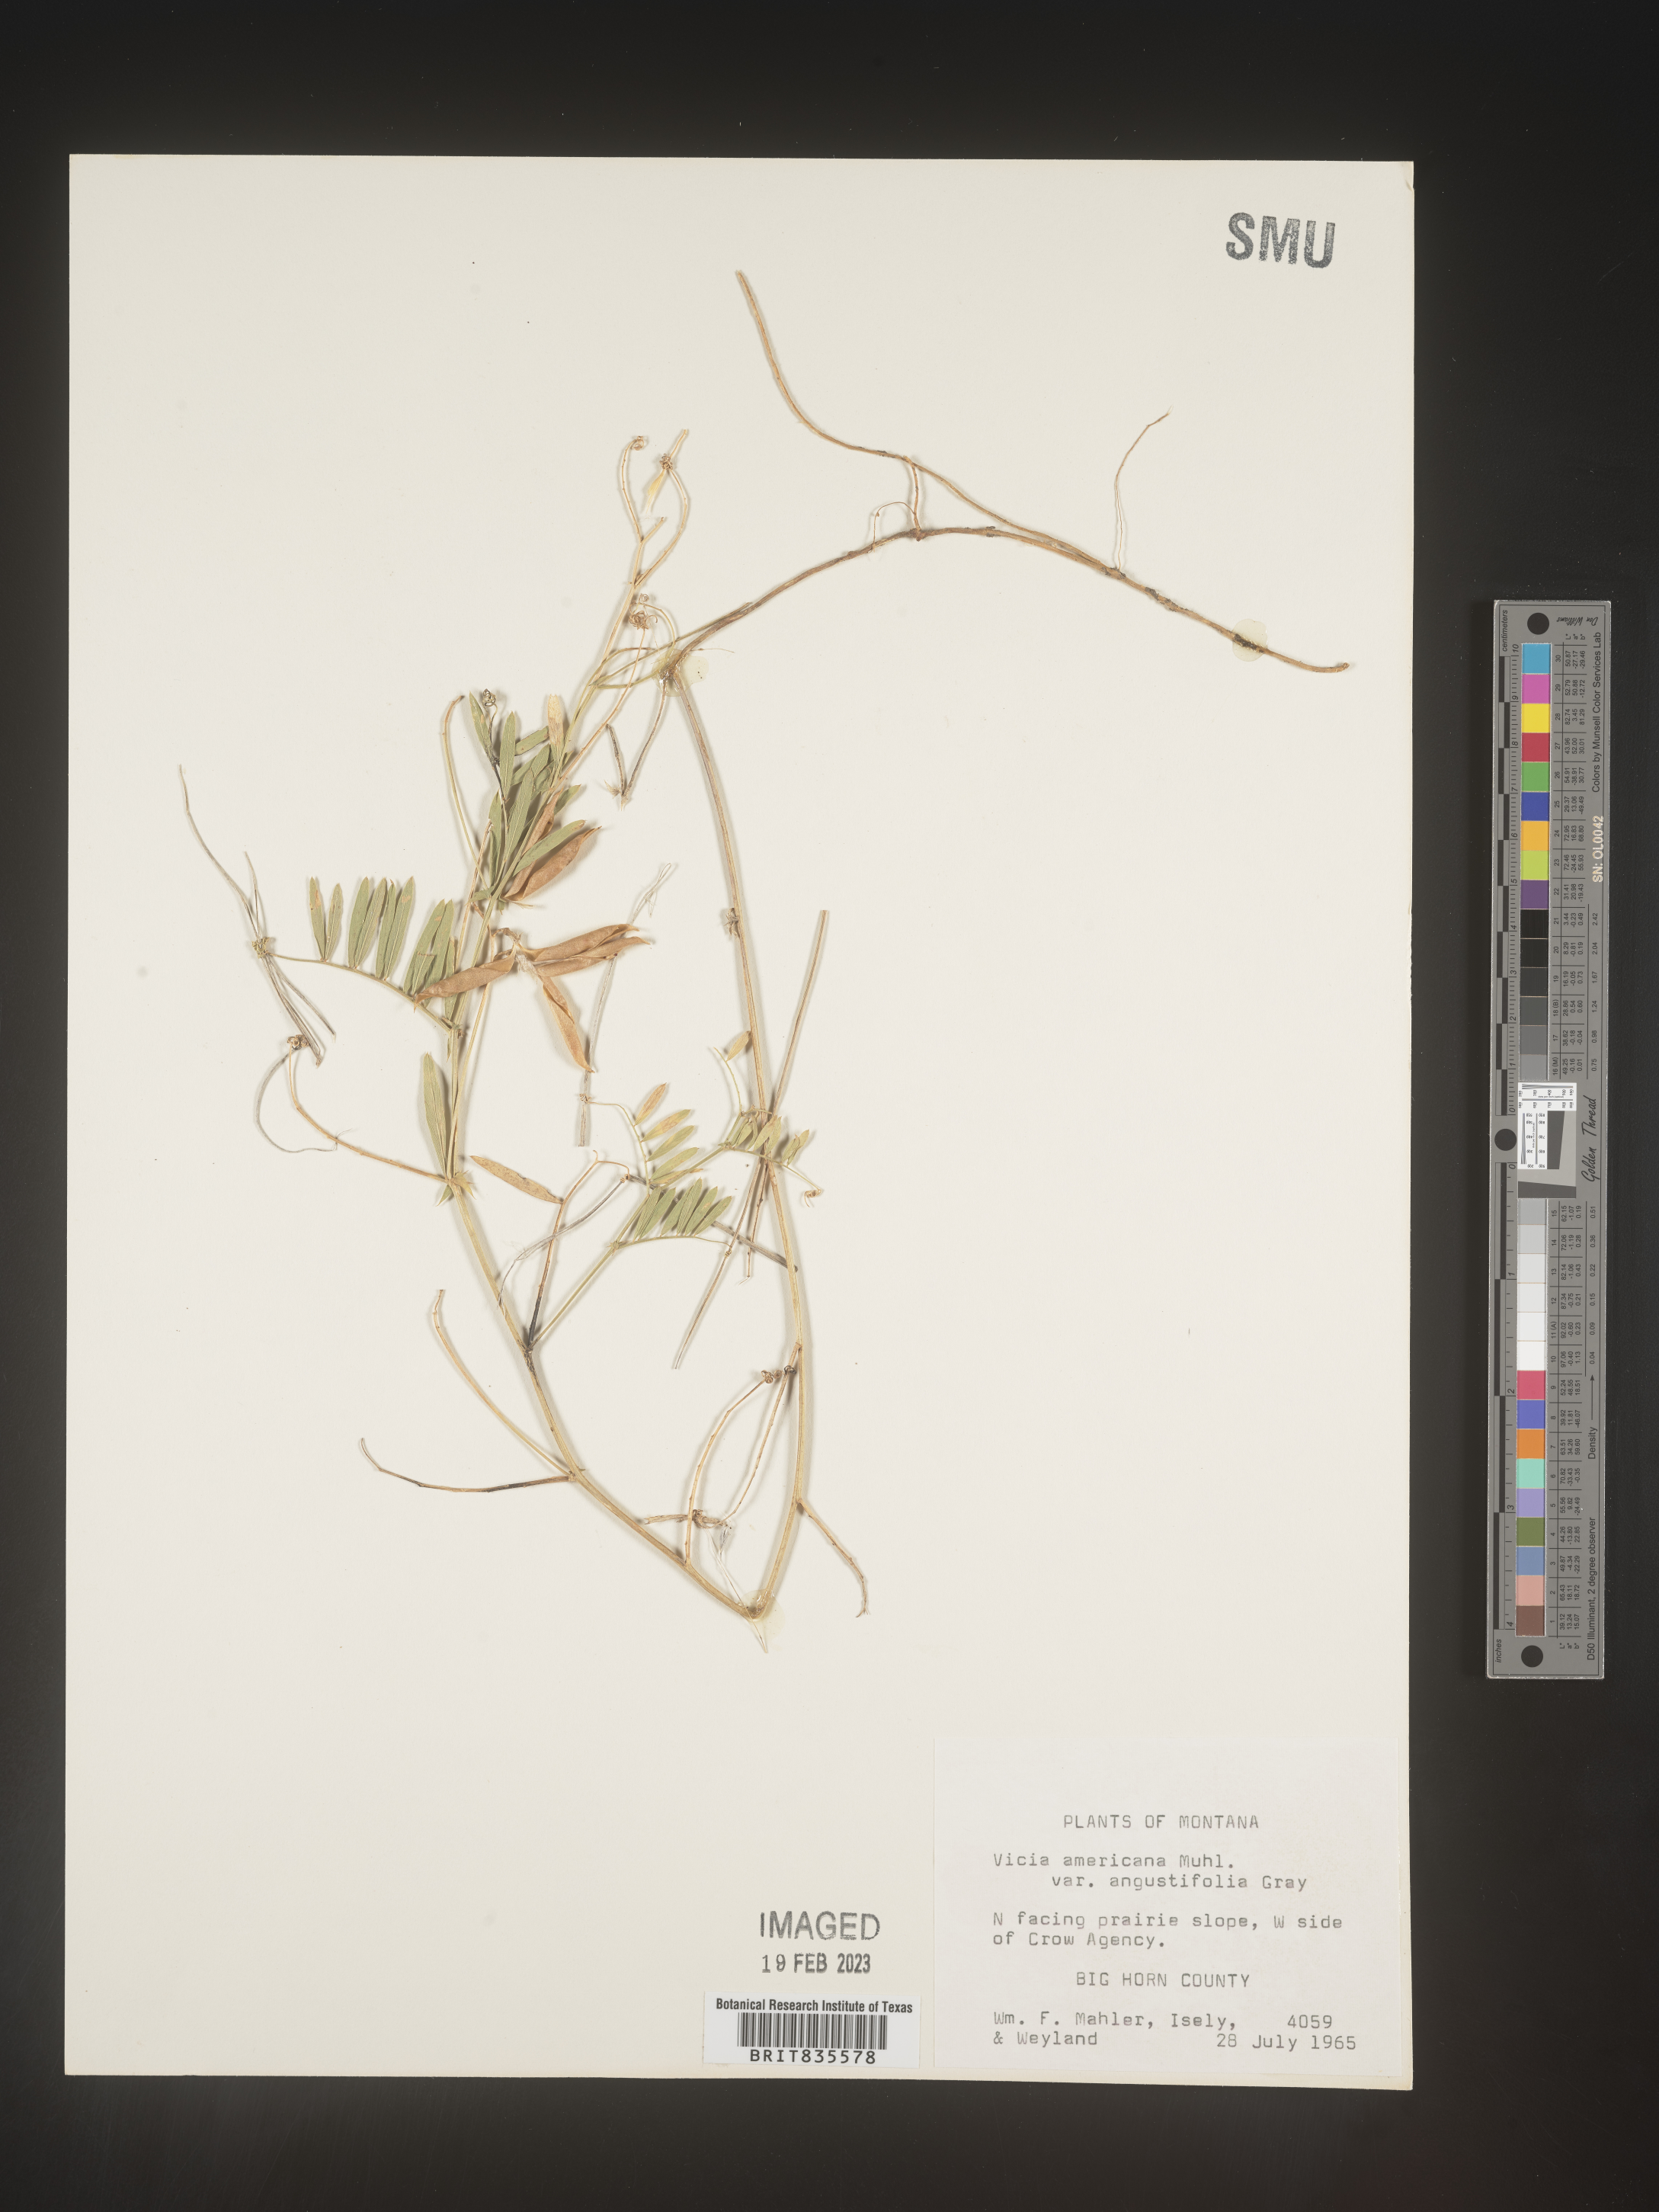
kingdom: Plantae
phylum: Tracheophyta
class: Magnoliopsida
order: Fabales
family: Fabaceae
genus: Vicia
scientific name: Vicia americana
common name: American vetch
